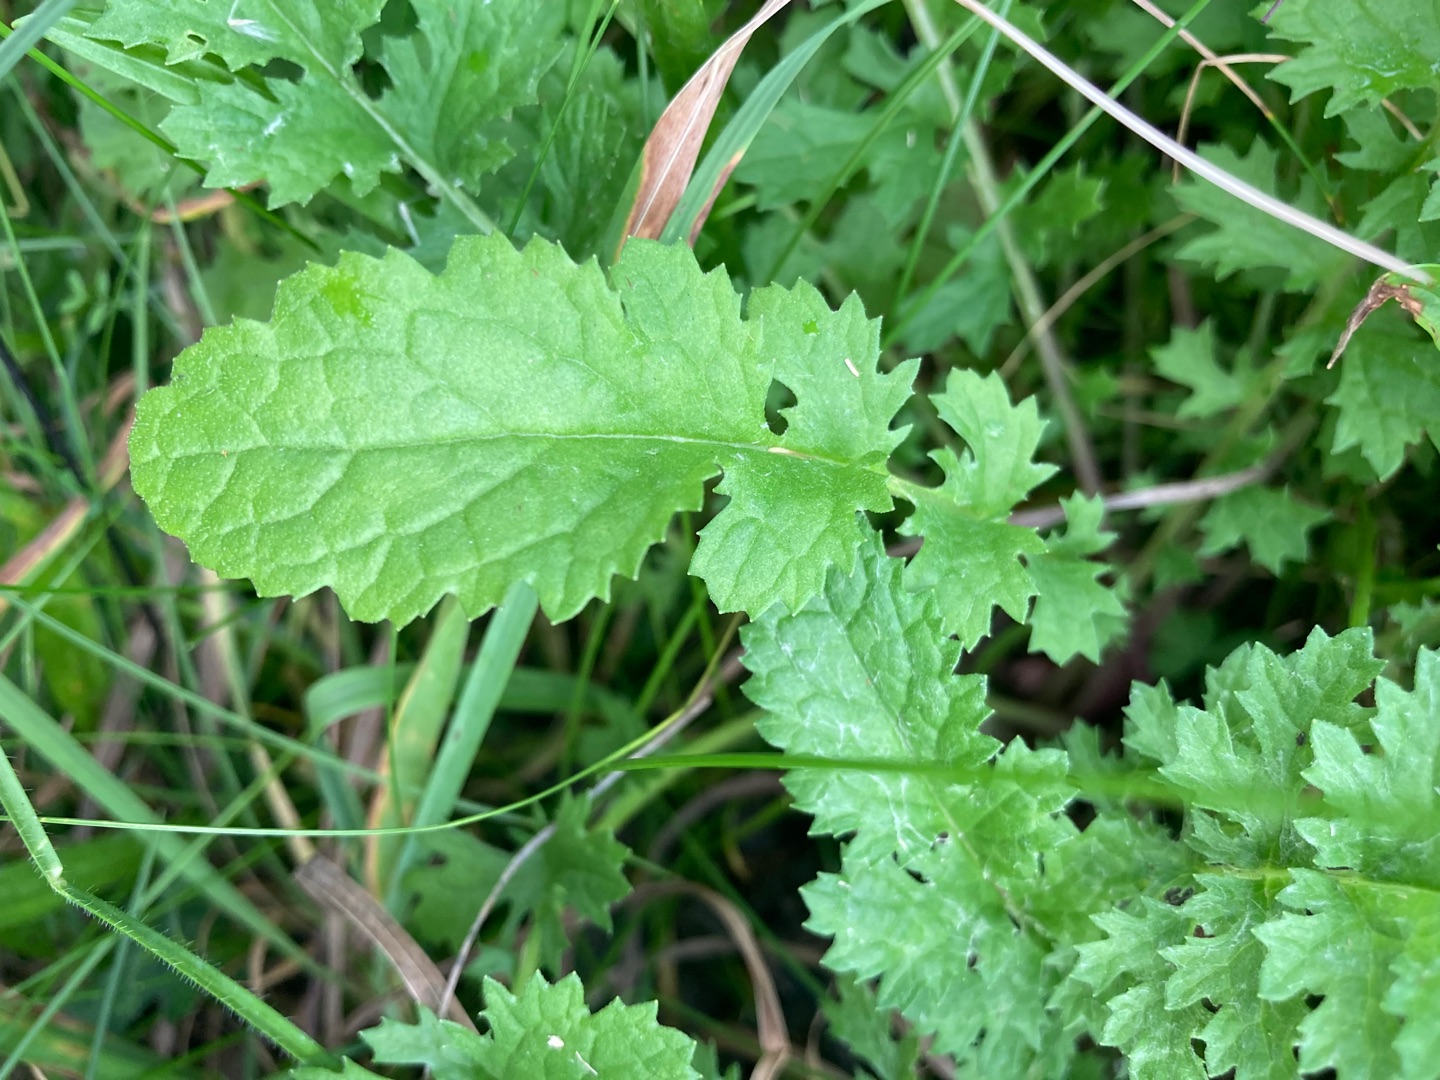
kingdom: Plantae
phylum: Tracheophyta
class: Magnoliopsida
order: Asterales
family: Asteraceae
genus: Jacobaea
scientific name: Jacobaea vulgaris
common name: Eng-brandbæger
